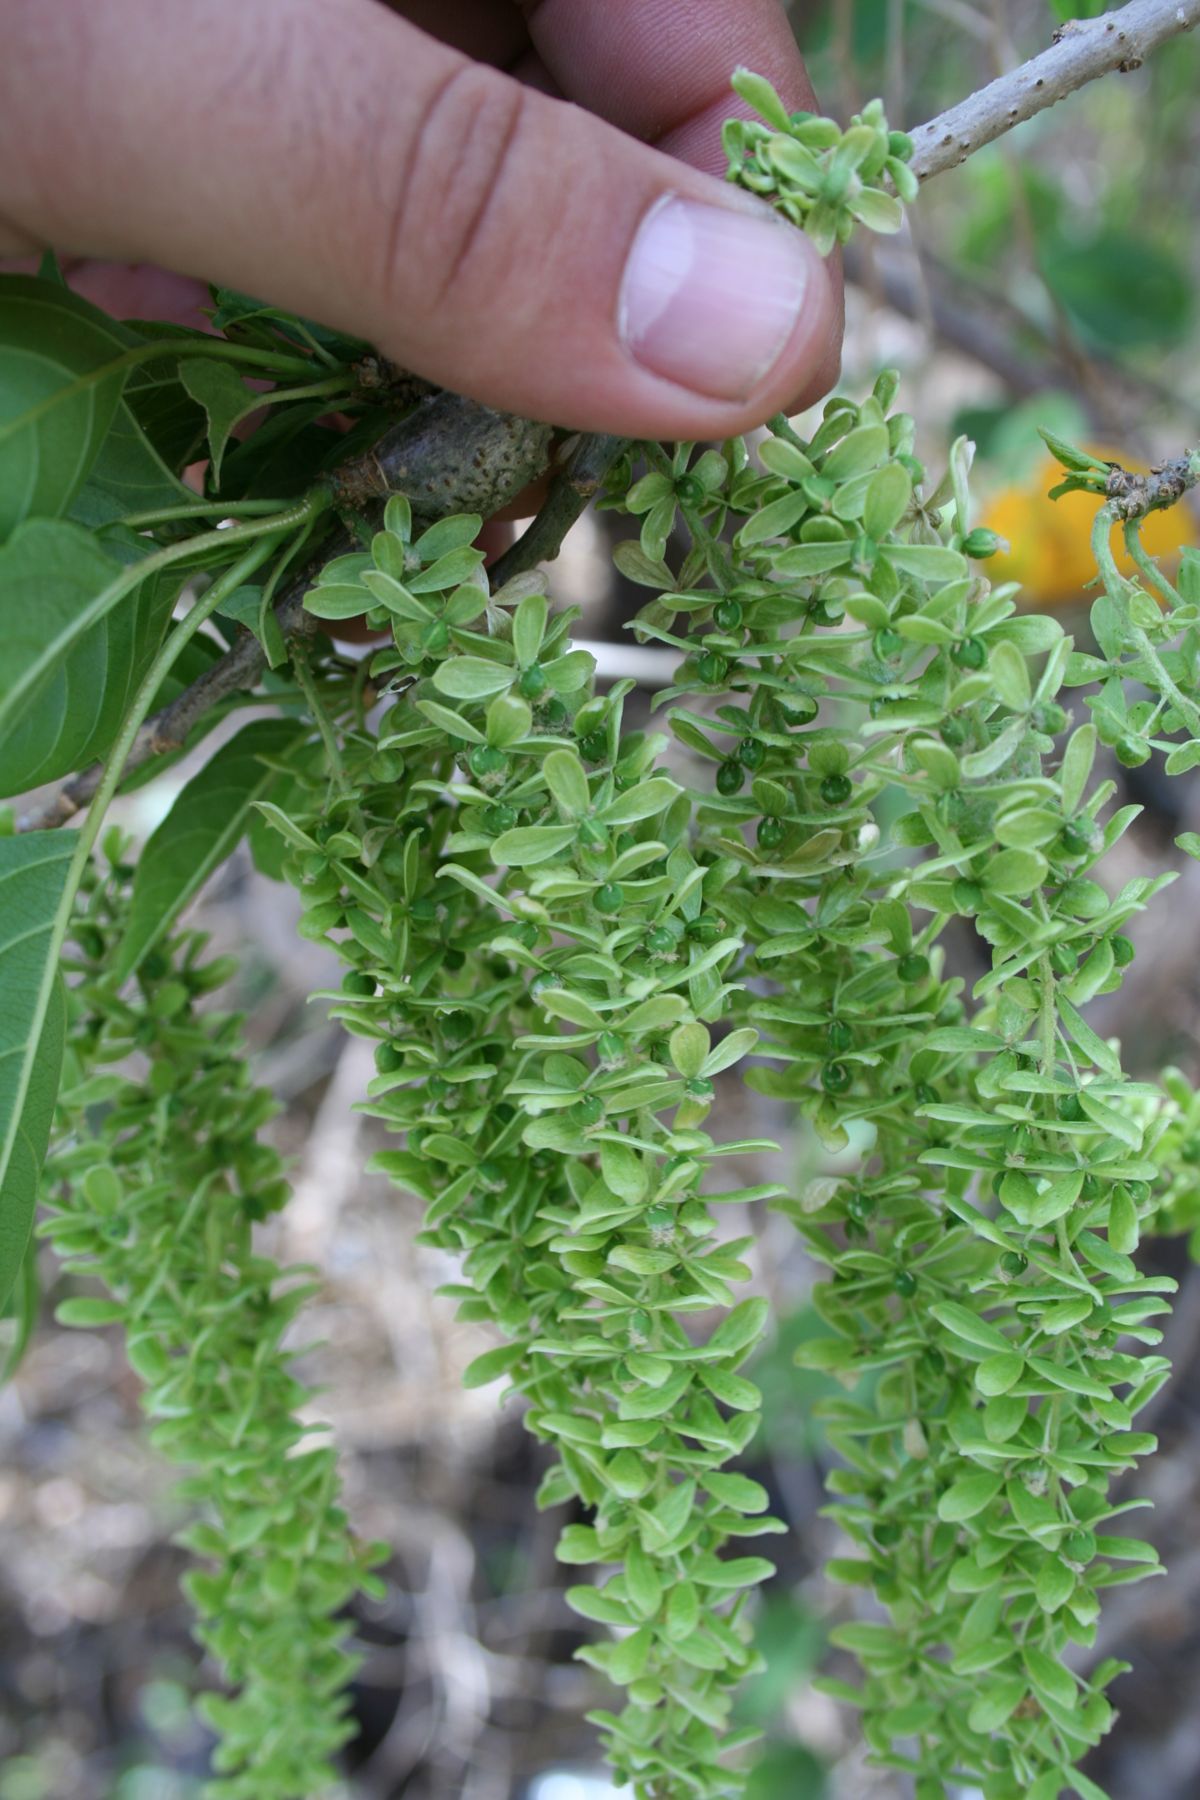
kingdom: Plantae
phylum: Tracheophyta
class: Magnoliopsida
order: Caryophyllales
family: Phytolaccaceae
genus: Ledenbergia
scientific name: Ledenbergia macrantha
